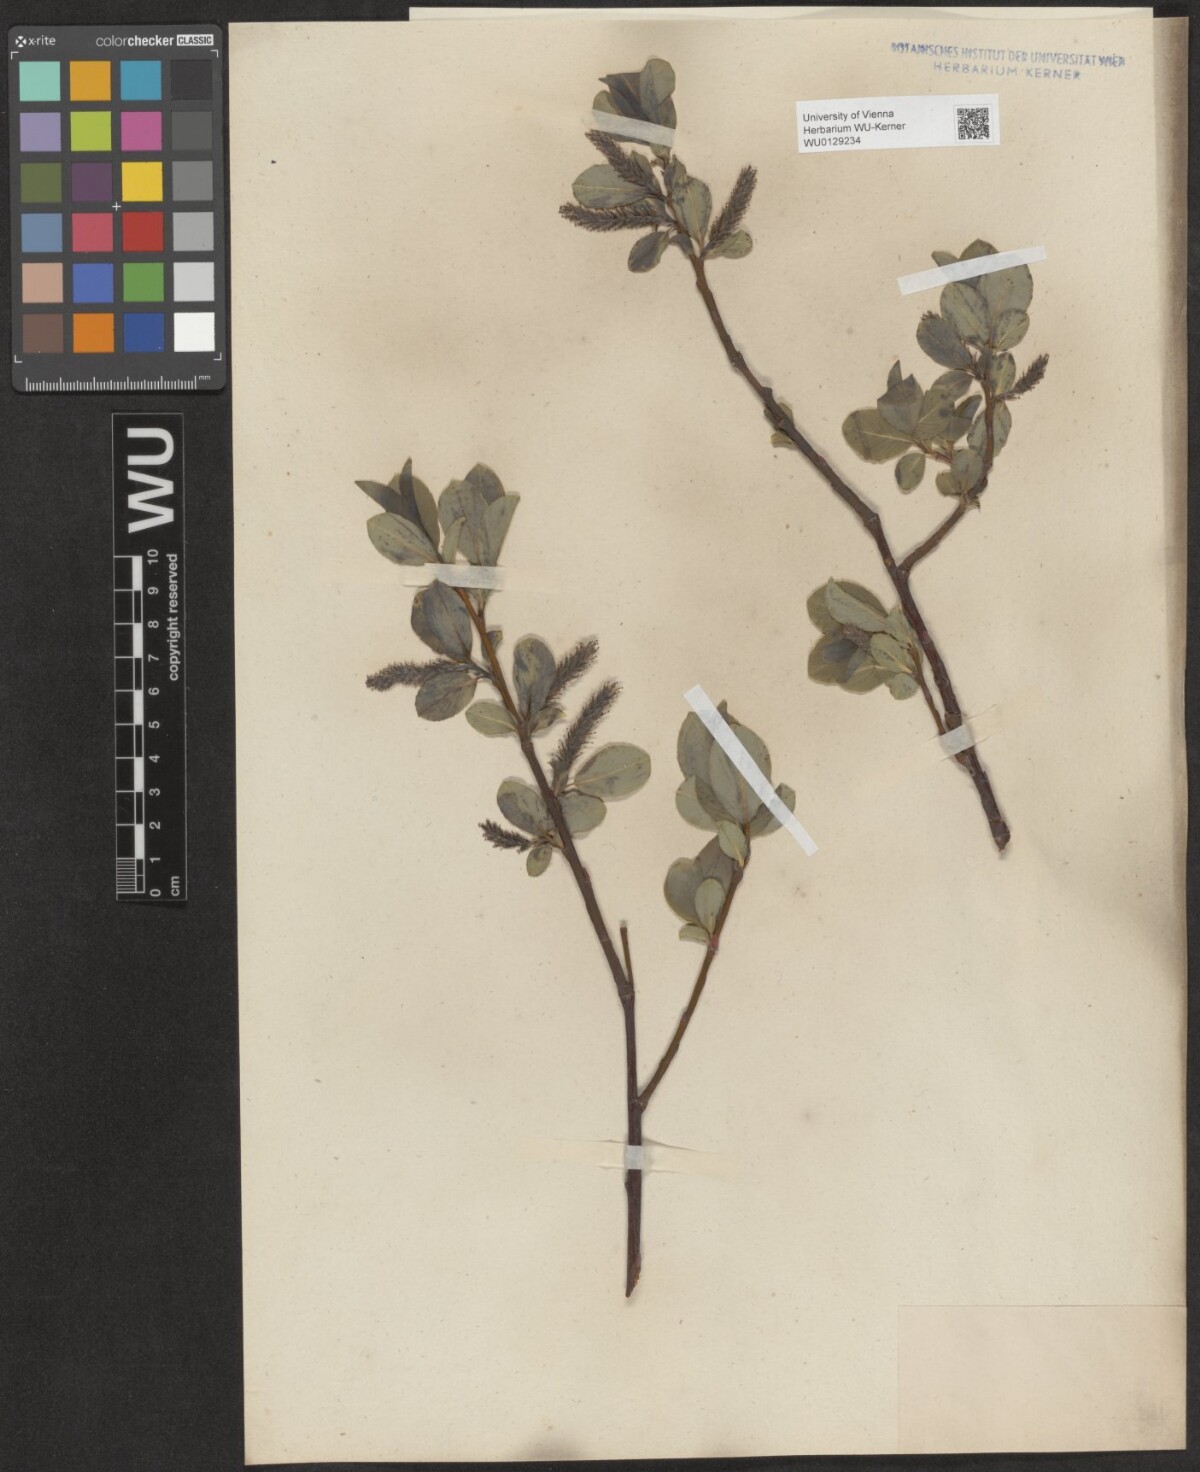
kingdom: Plantae
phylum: Tracheophyta
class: Magnoliopsida
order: Malpighiales
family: Salicaceae
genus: Salix
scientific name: Salix glabra
